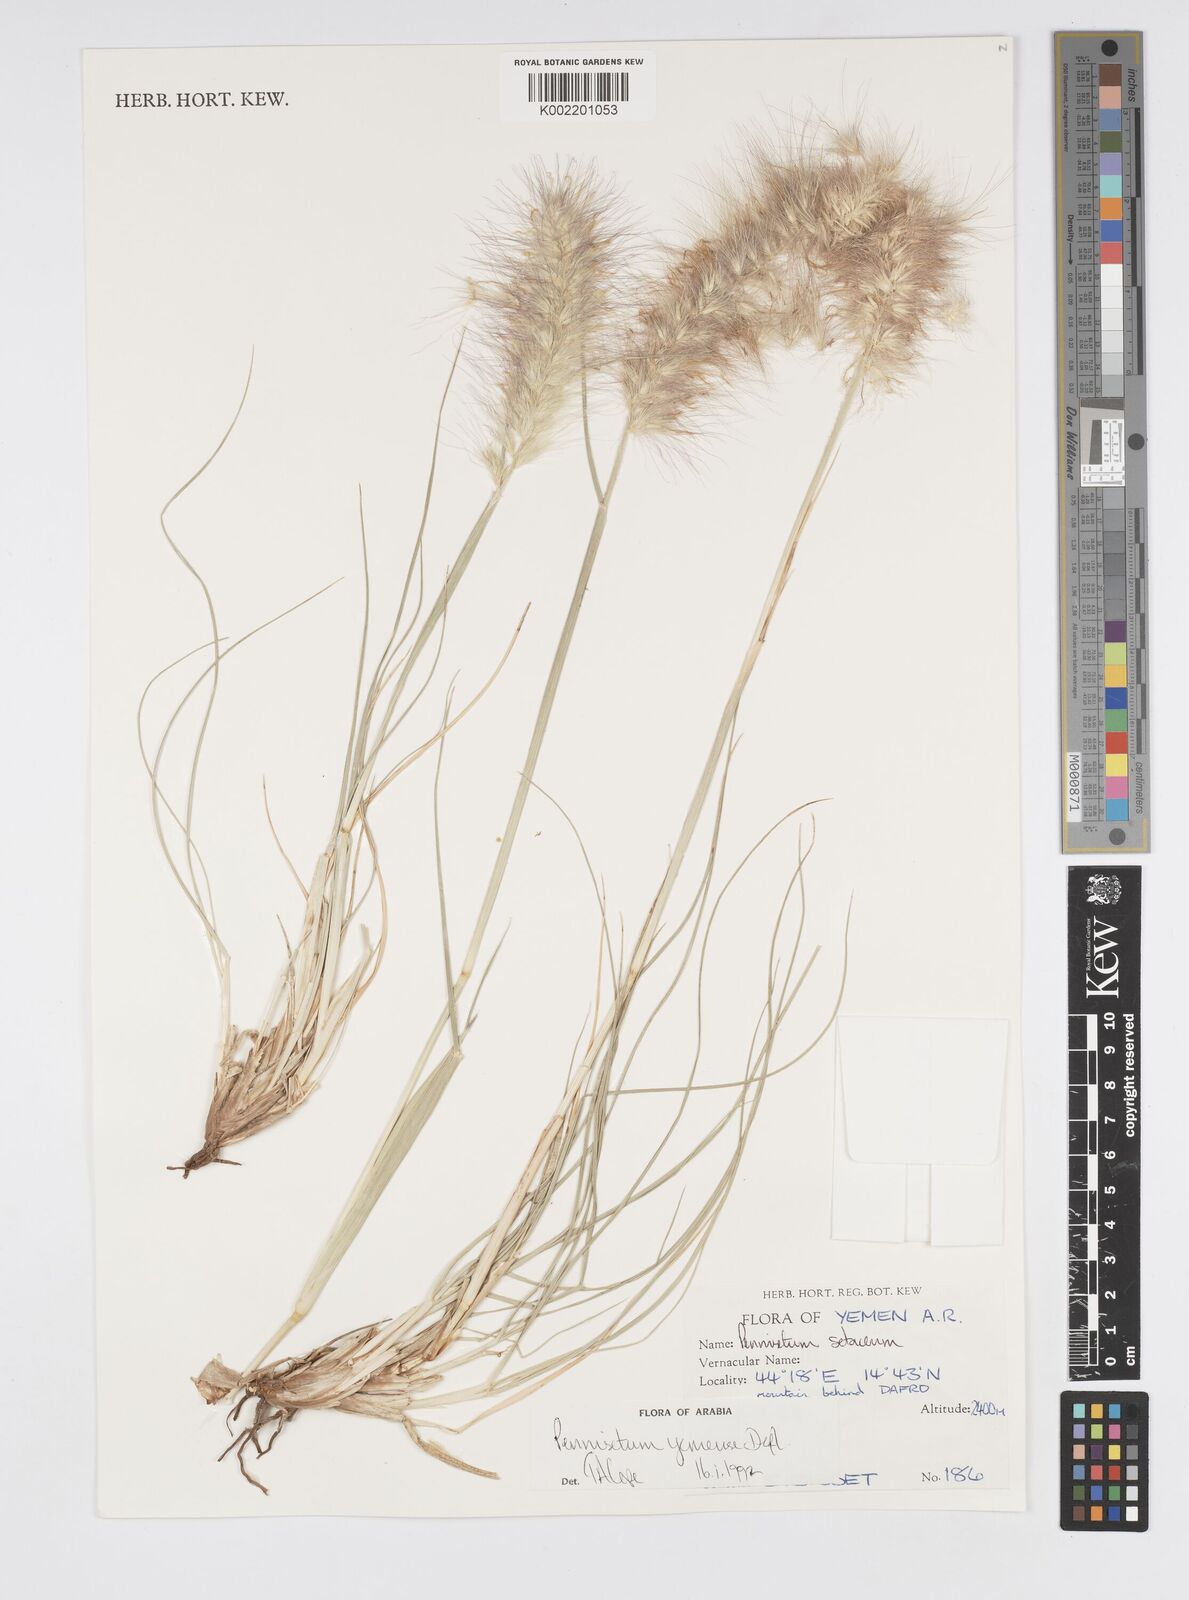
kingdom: Plantae
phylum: Tracheophyta
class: Liliopsida
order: Poales
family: Poaceae
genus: Cenchrus
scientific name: Cenchrus yemensis
